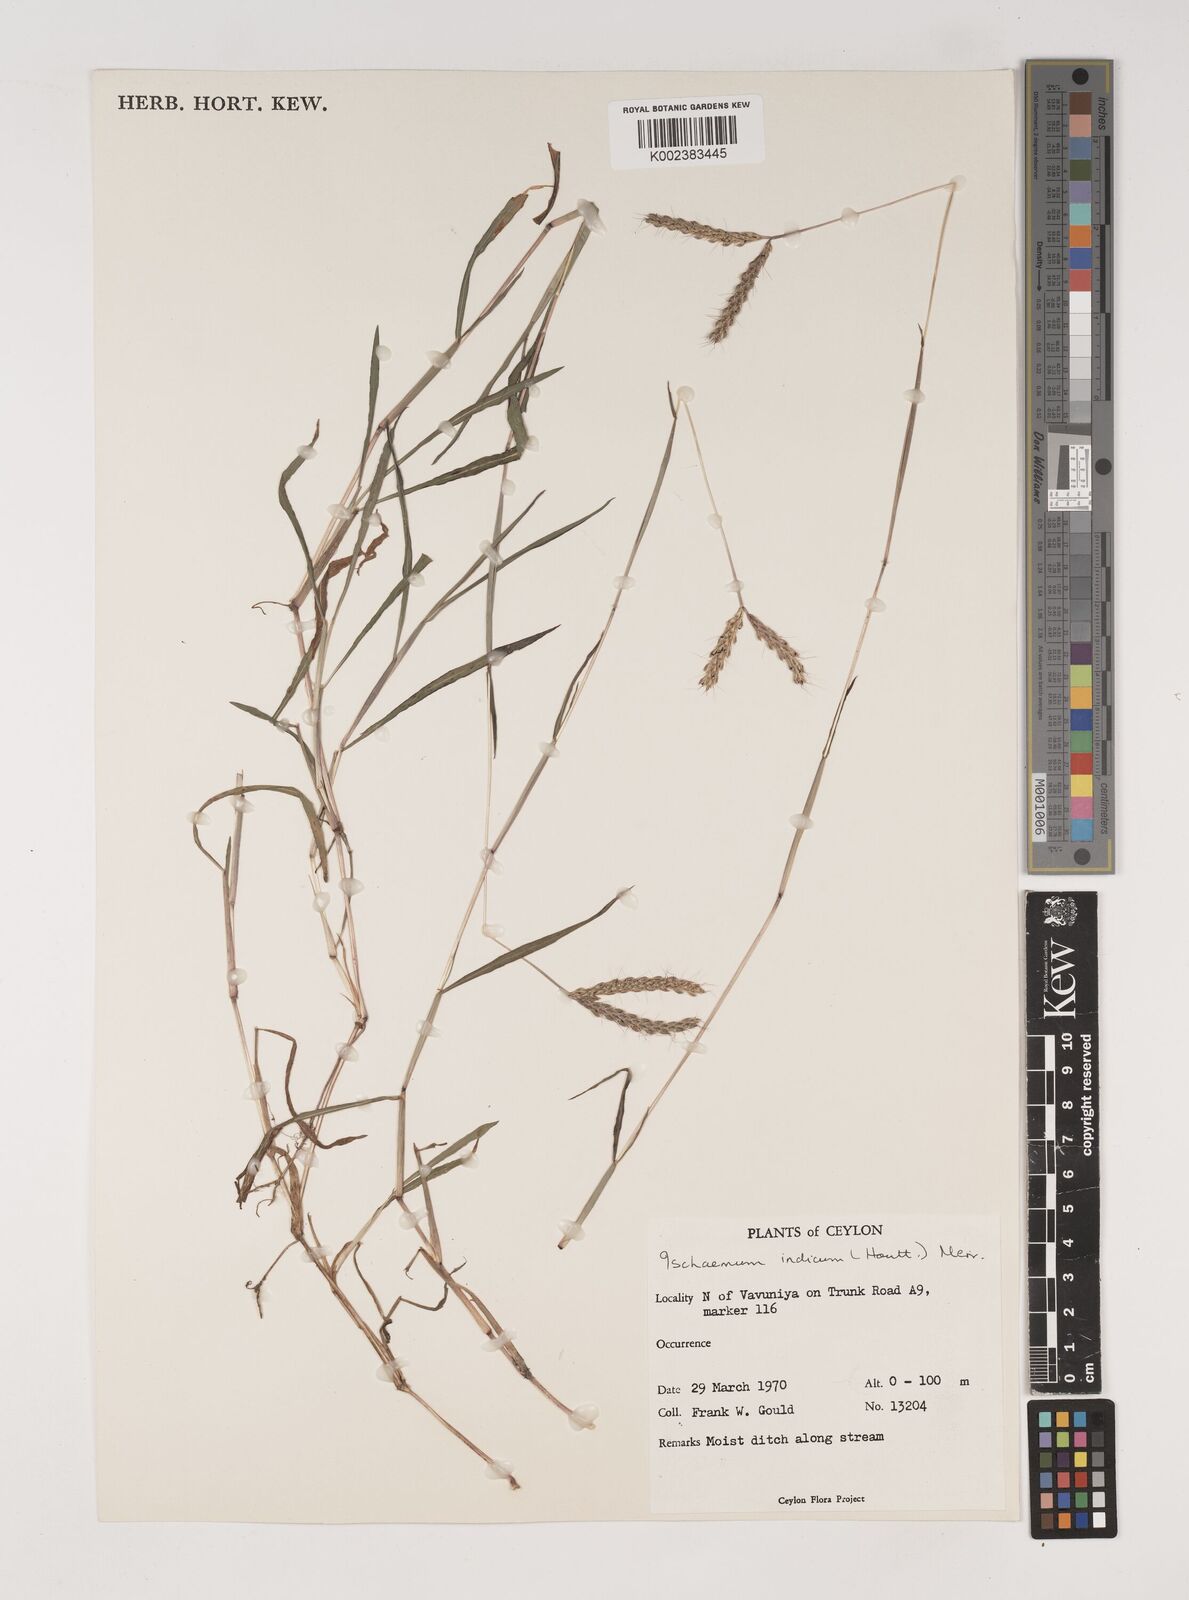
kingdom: Plantae
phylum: Tracheophyta
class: Liliopsida
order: Poales
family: Poaceae
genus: Polytrias
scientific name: Polytrias indica
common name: Indian murainagrass
